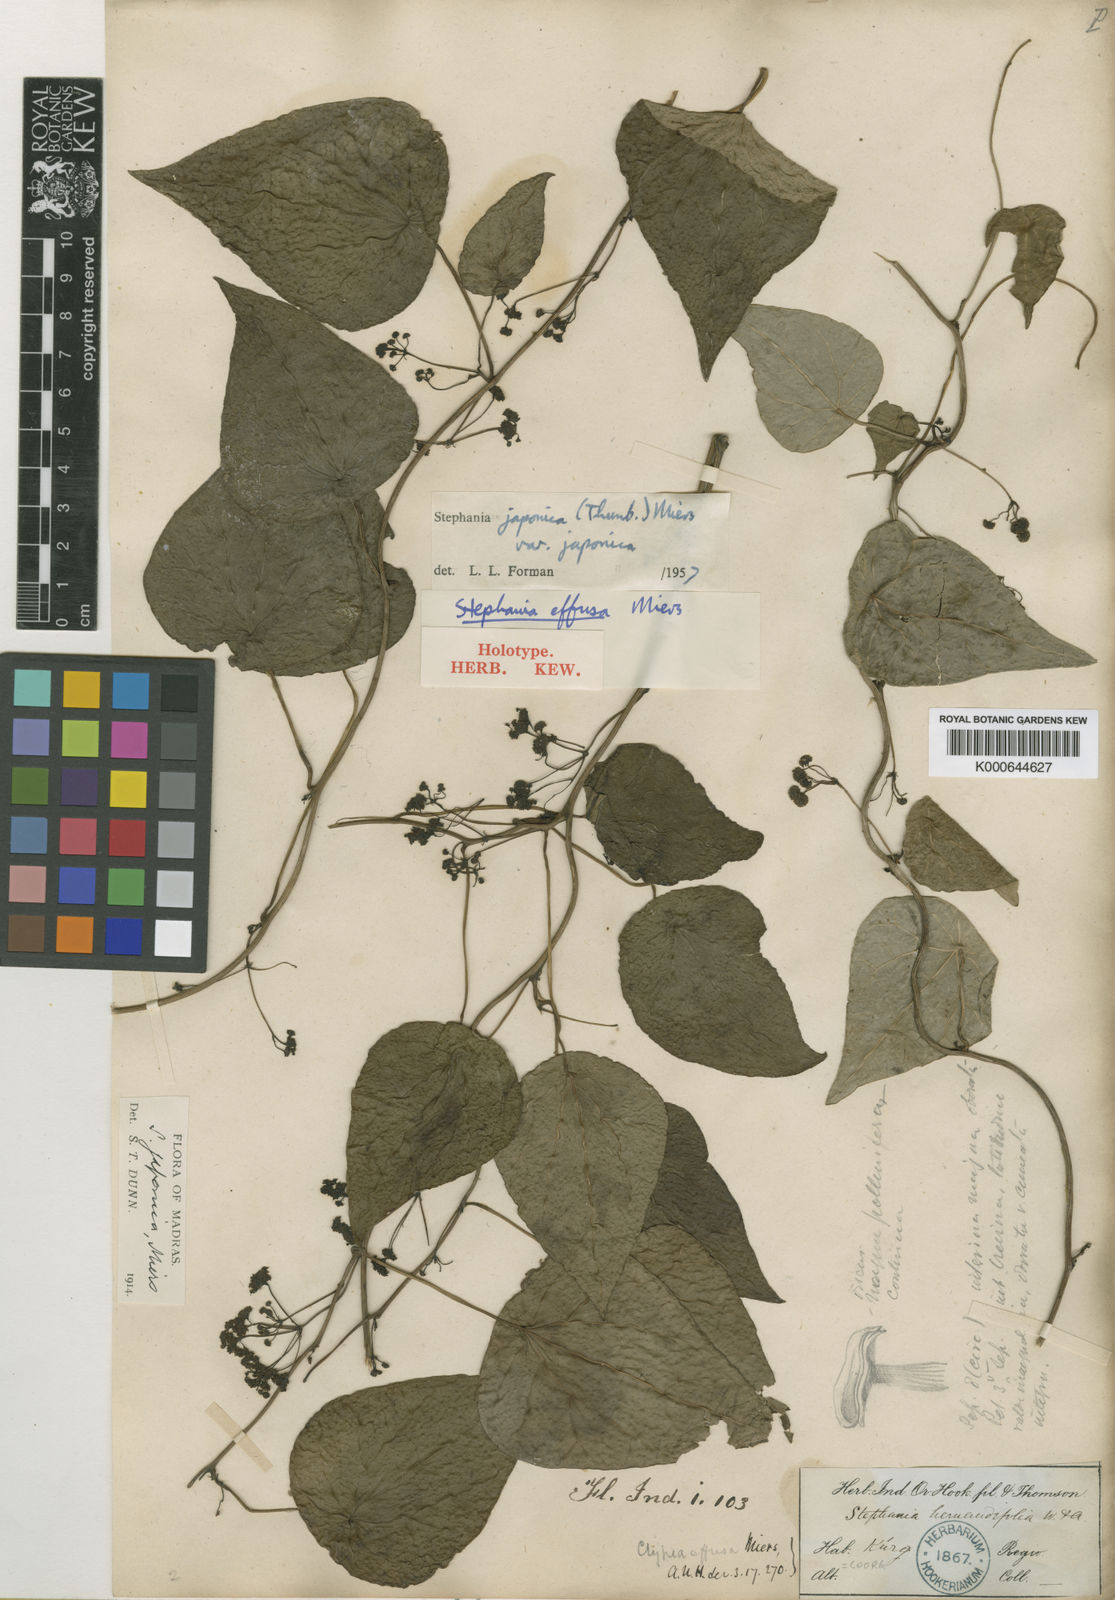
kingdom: Plantae
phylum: Tracheophyta
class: Magnoliopsida
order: Ranunculales
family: Menispermaceae
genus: Stephania
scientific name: Stephania japonica
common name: Snake vine
